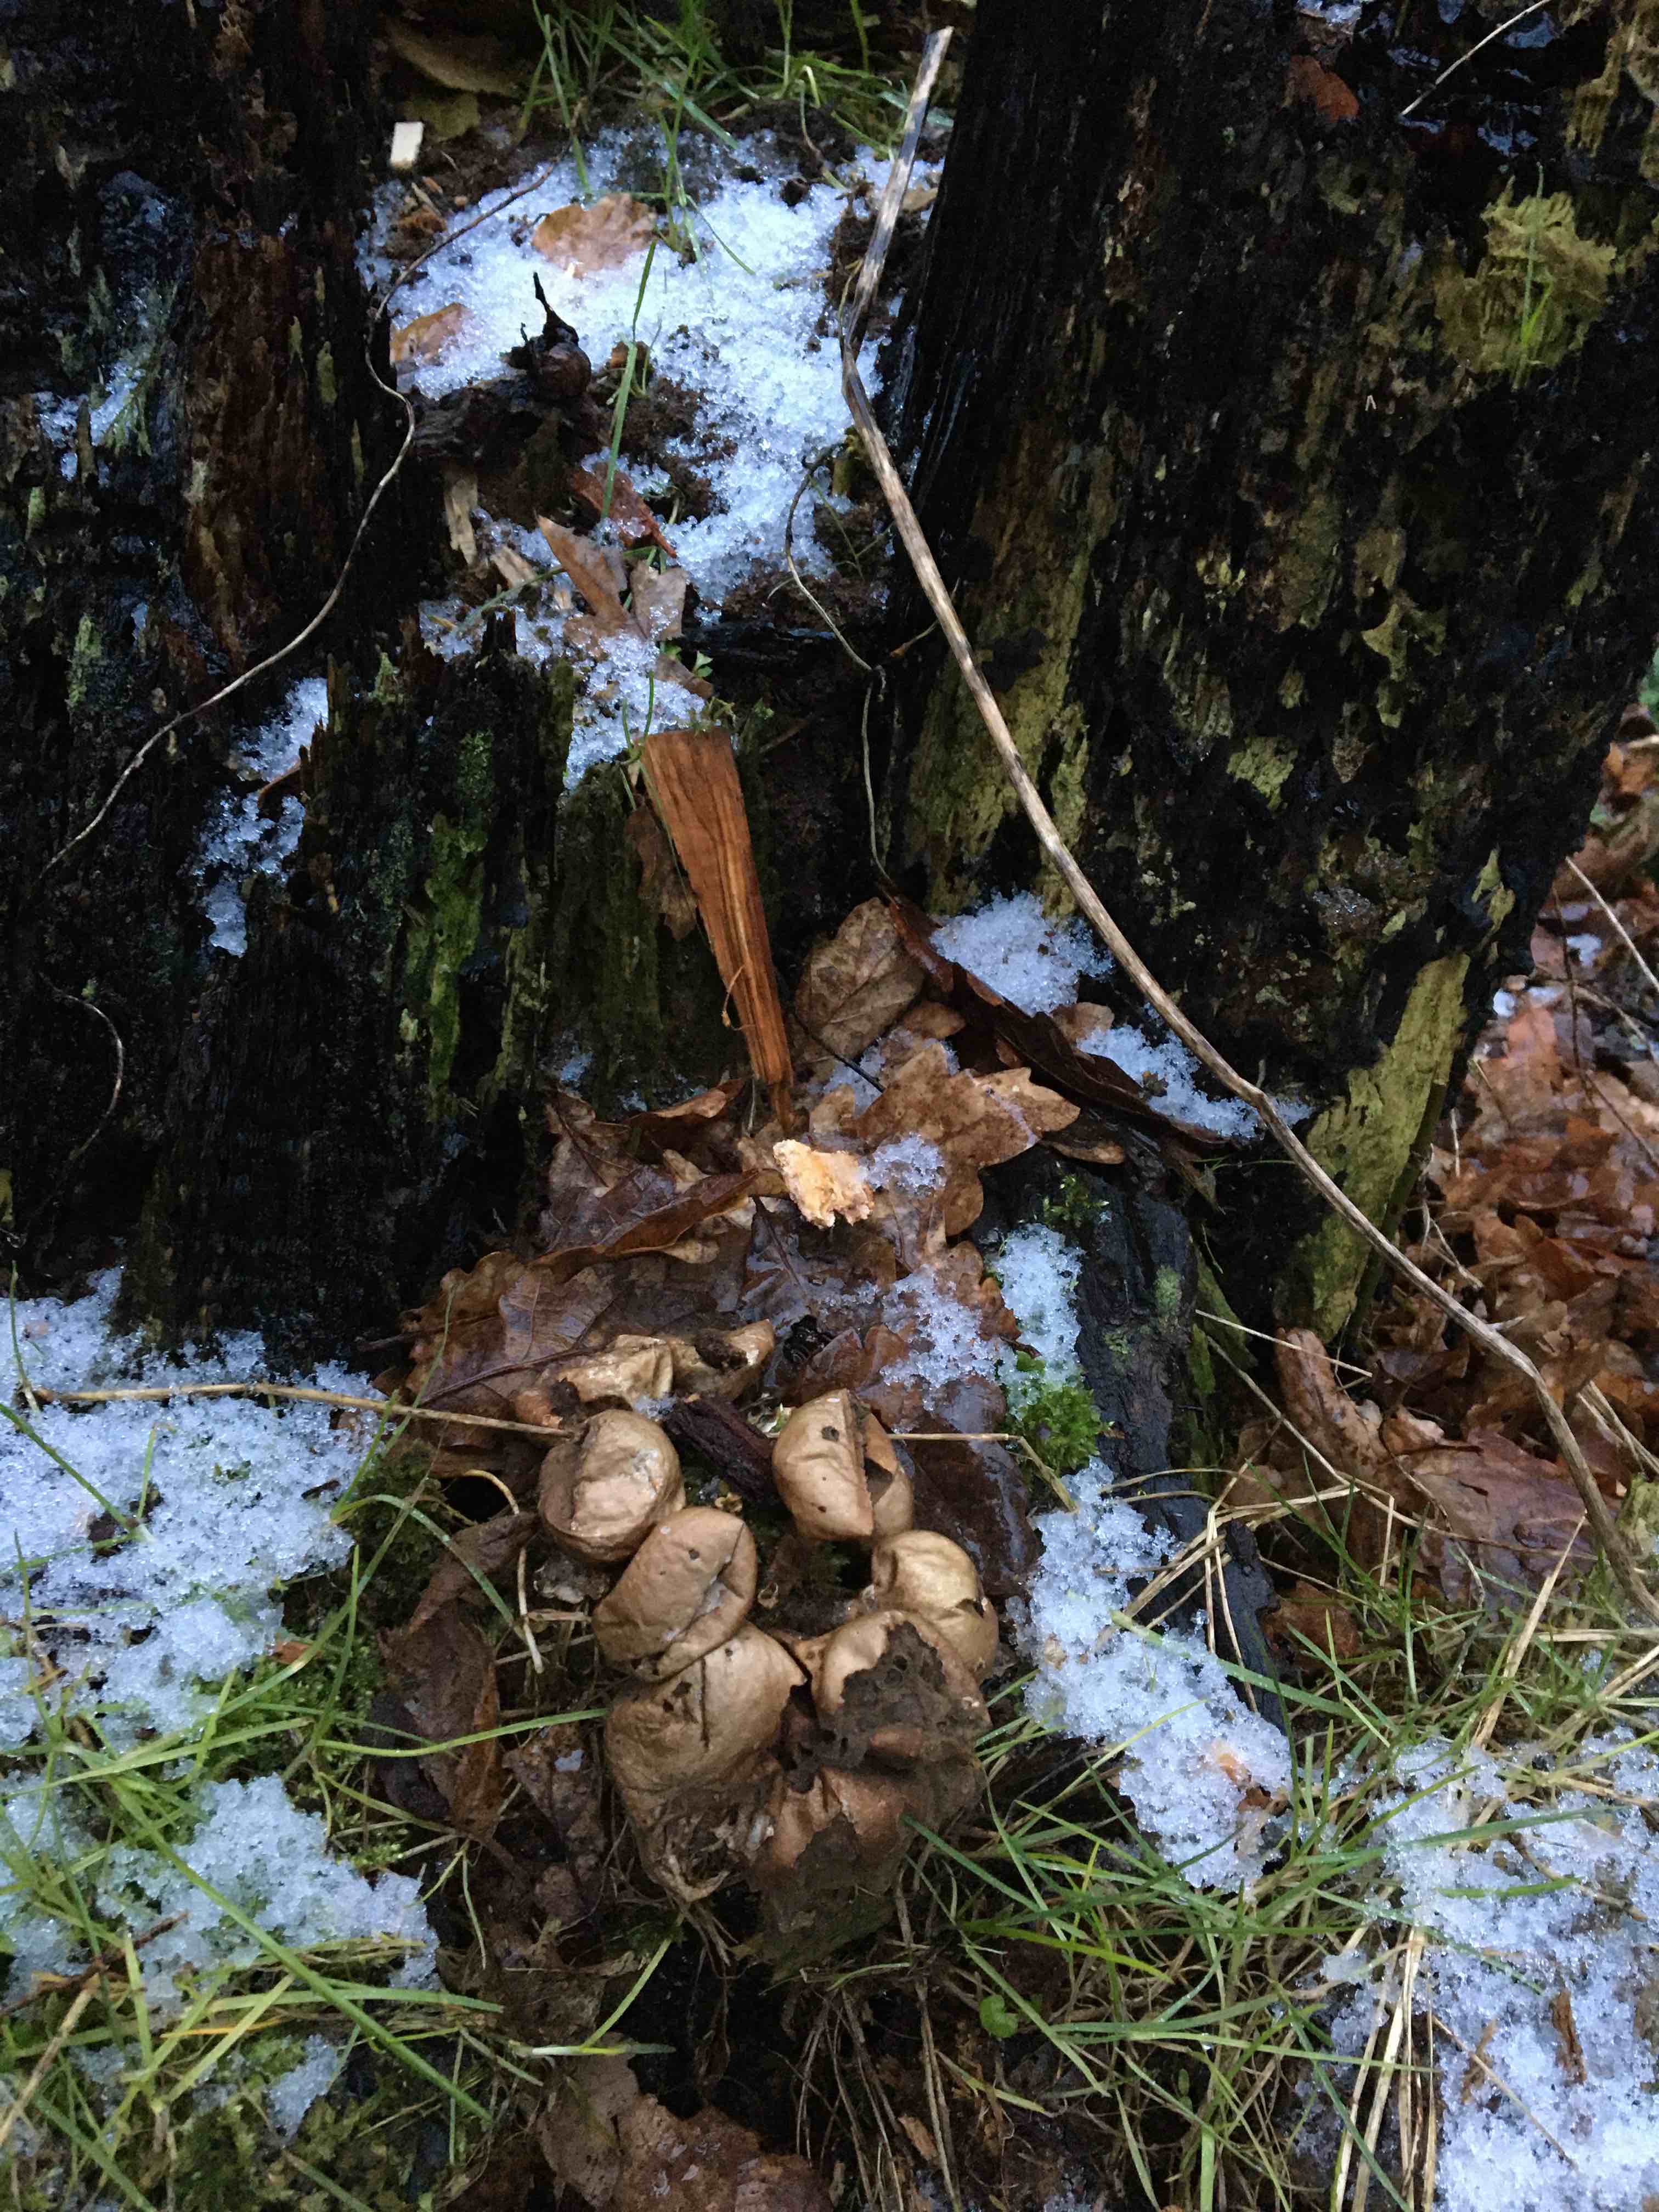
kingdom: Fungi
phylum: Basidiomycota
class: Agaricomycetes
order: Agaricales
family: Lycoperdaceae
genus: Apioperdon
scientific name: Apioperdon pyriforme
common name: pære-støvbold
